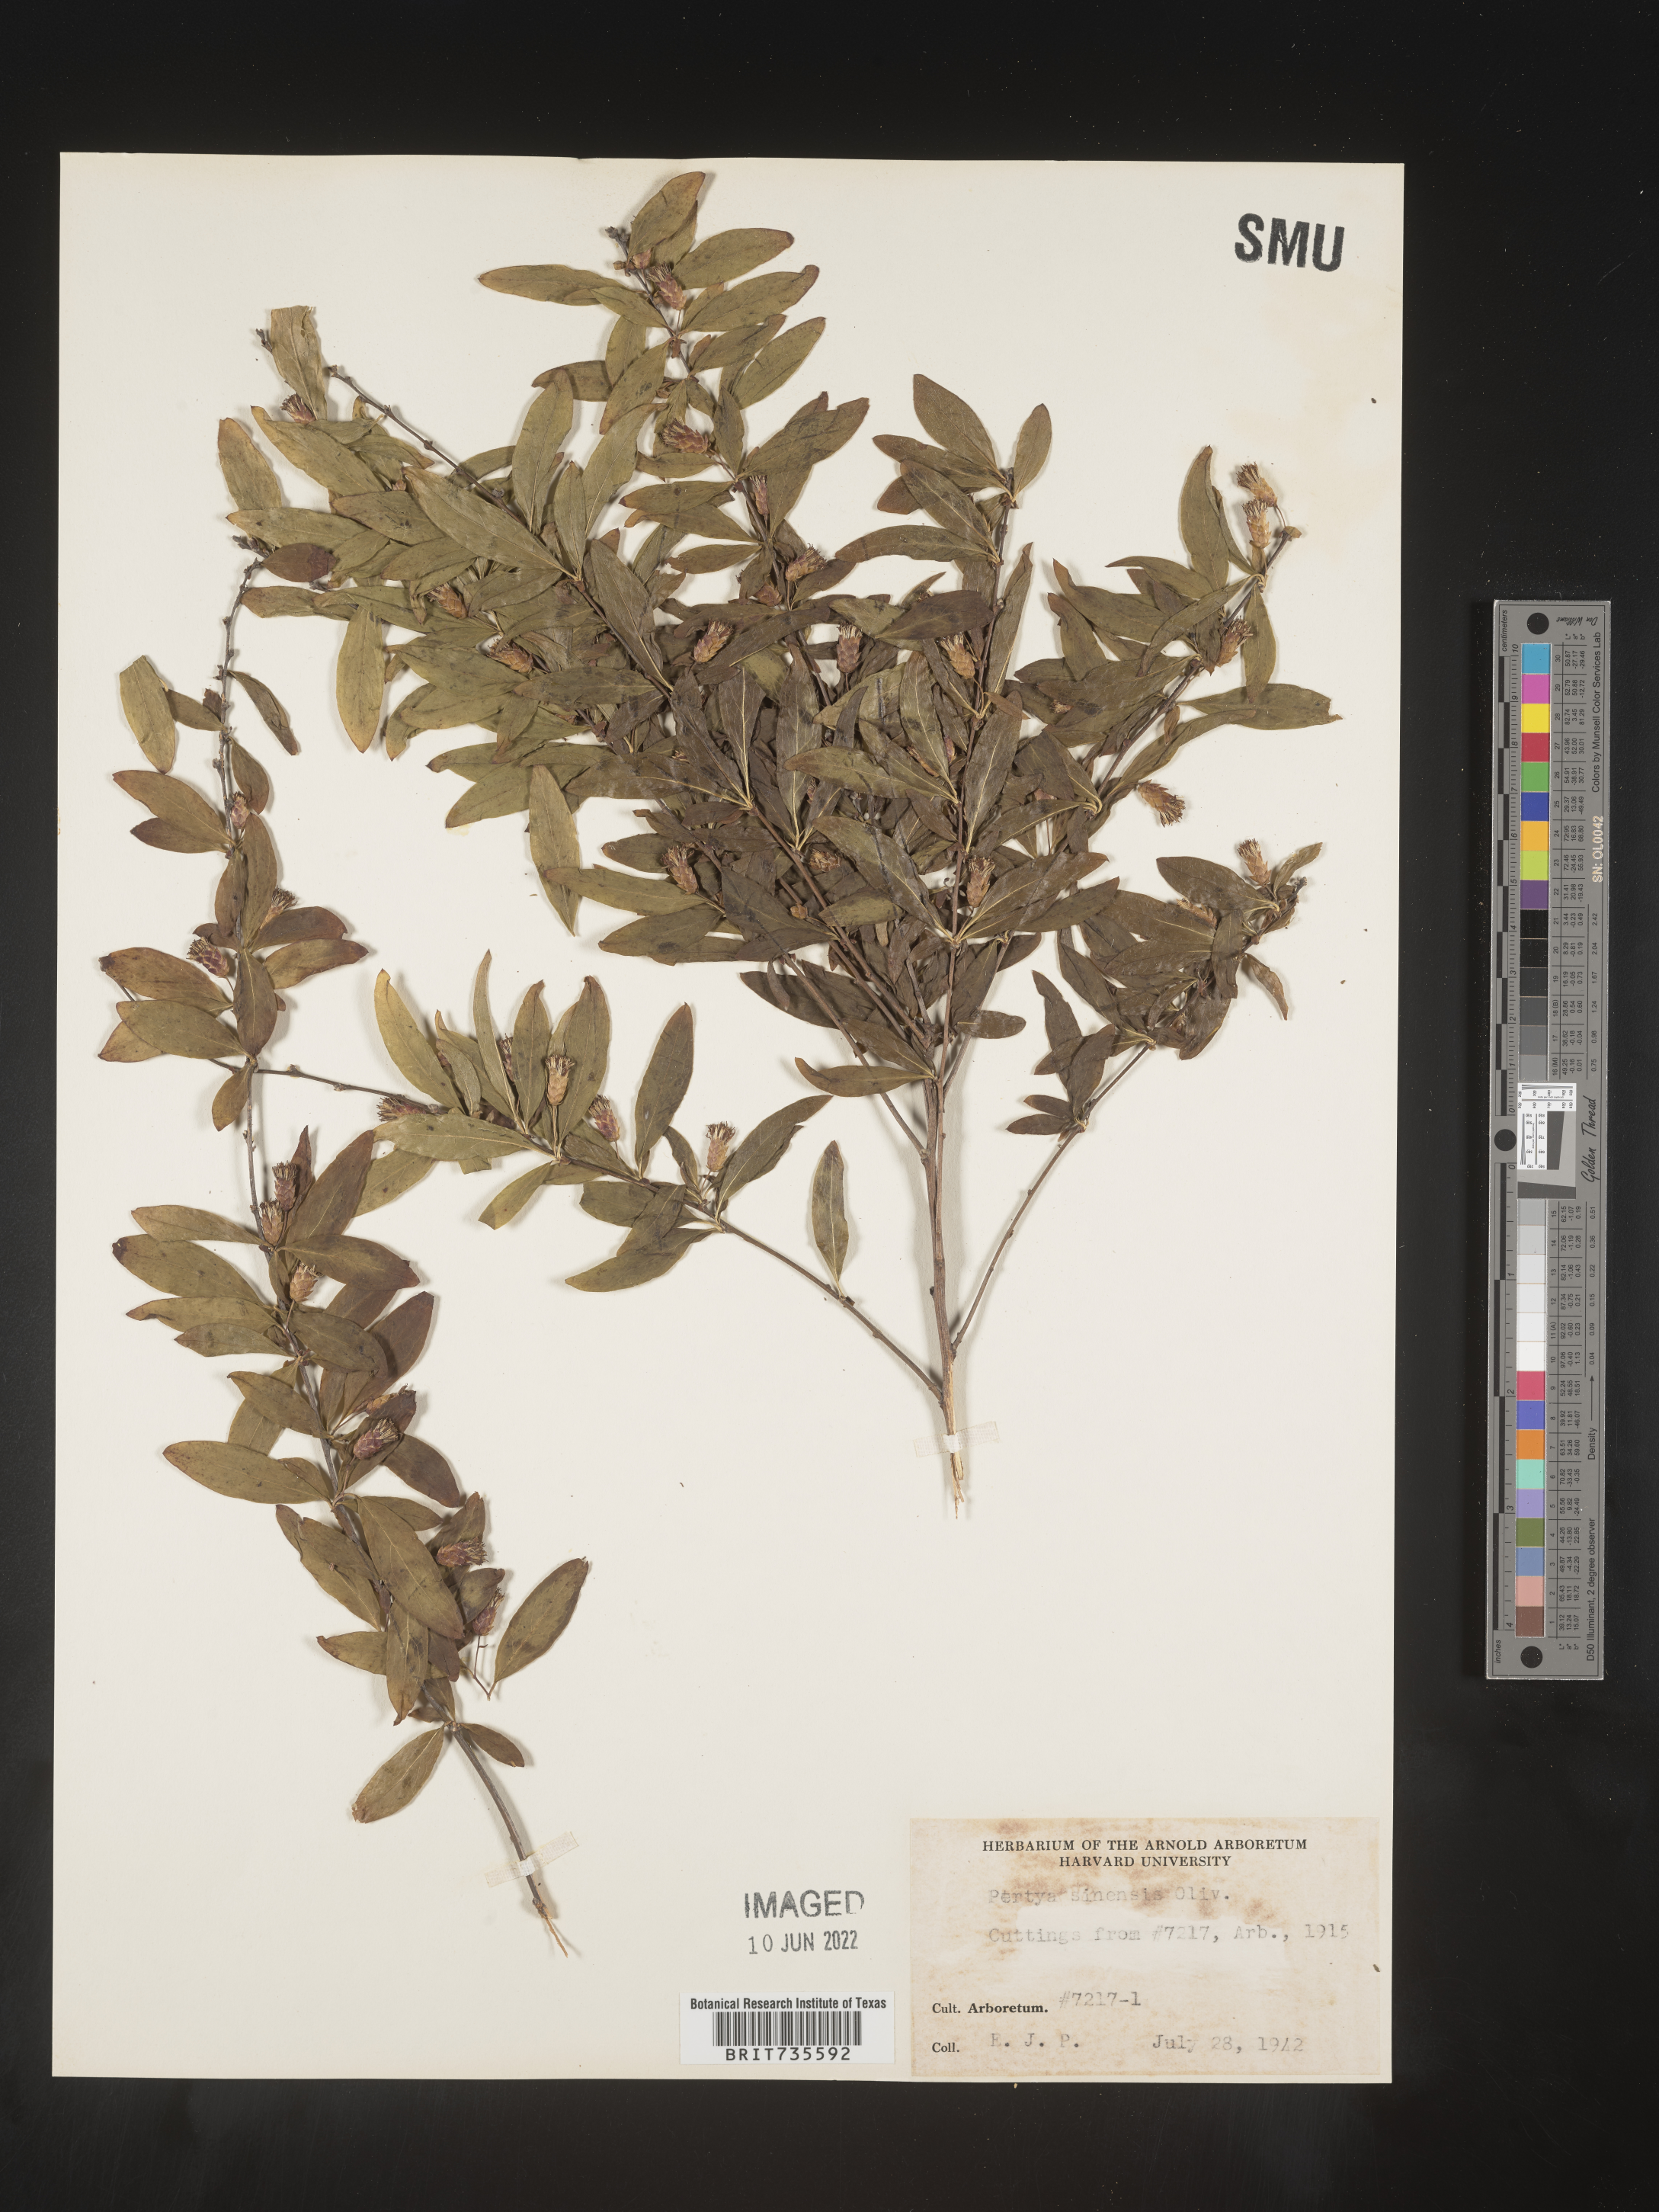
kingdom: Plantae
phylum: Tracheophyta
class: Magnoliopsida
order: Asterales
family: Asteraceae
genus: Pertya
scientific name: Pertya
